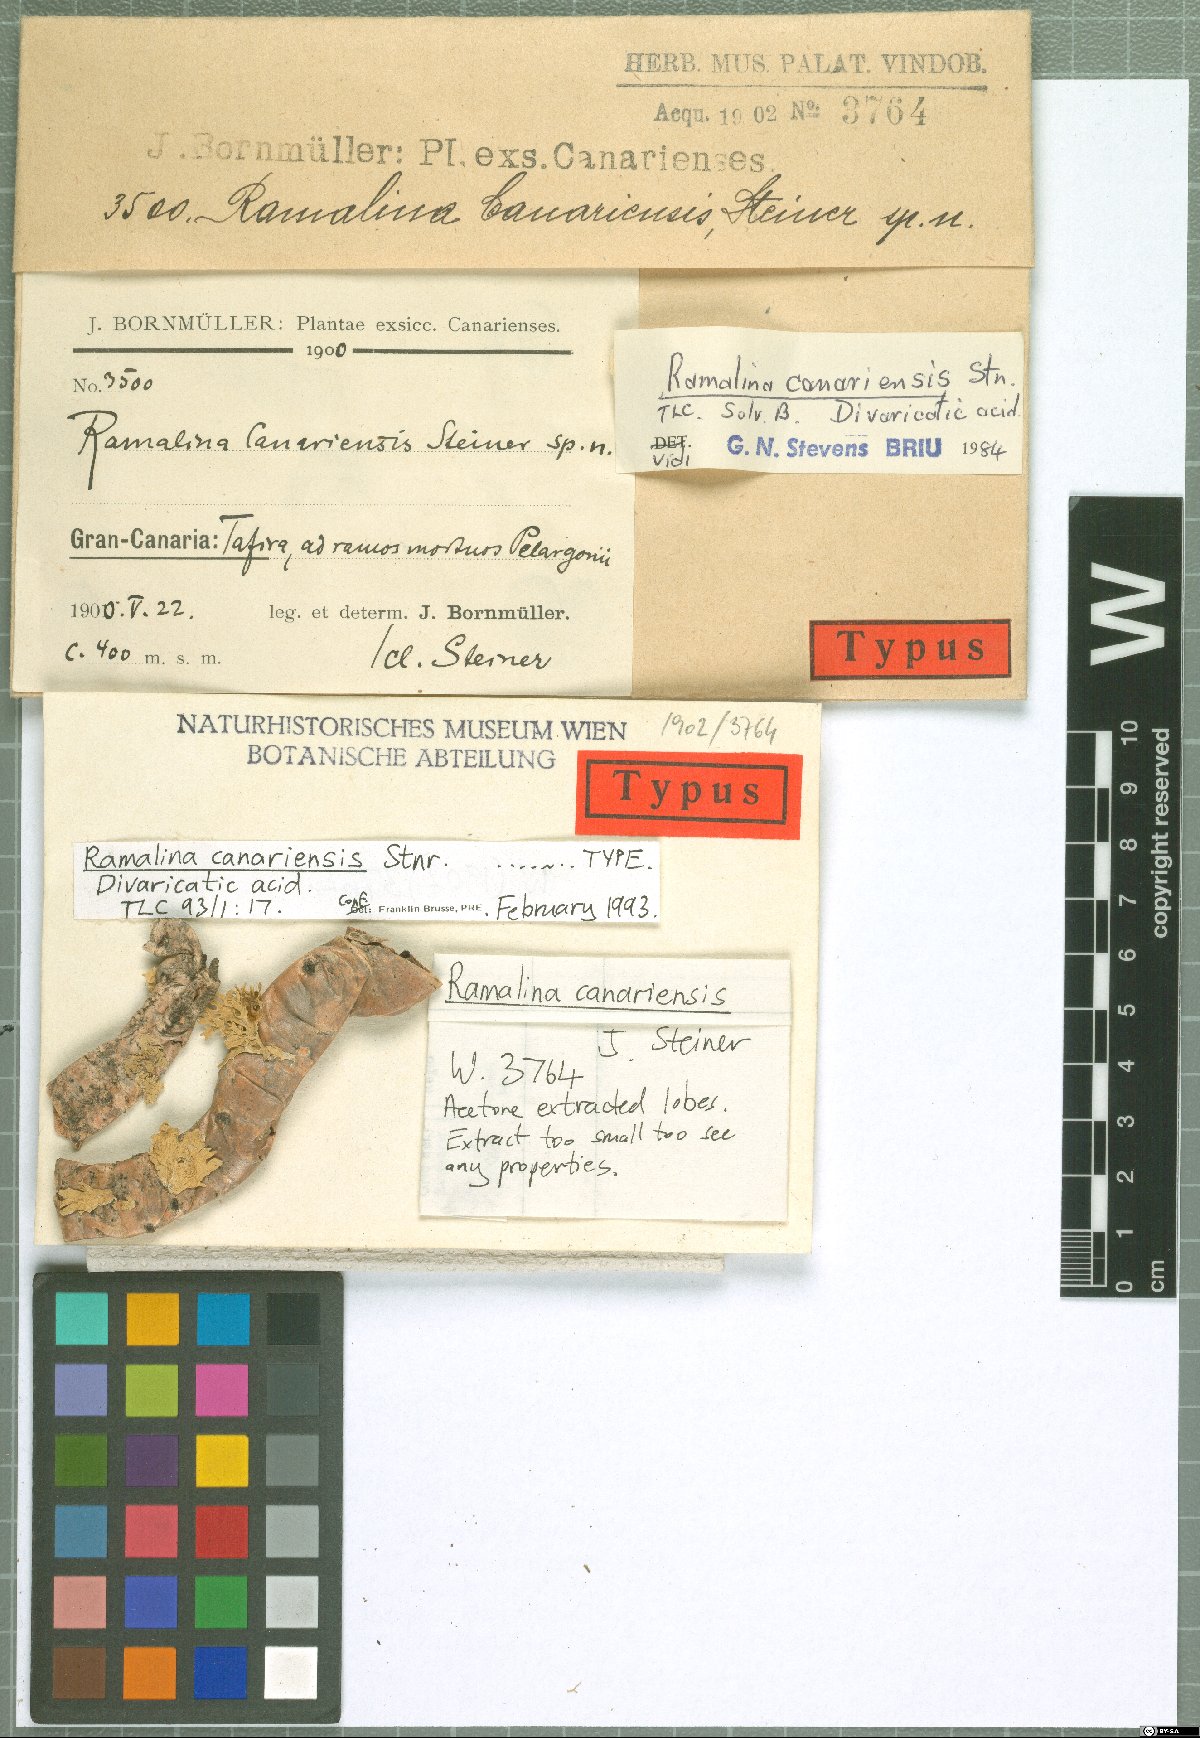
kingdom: Fungi
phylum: Ascomycota
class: Lecanoromycetes
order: Lecanorales
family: Ramalinaceae
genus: Ramalina
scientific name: Ramalina canariensis
